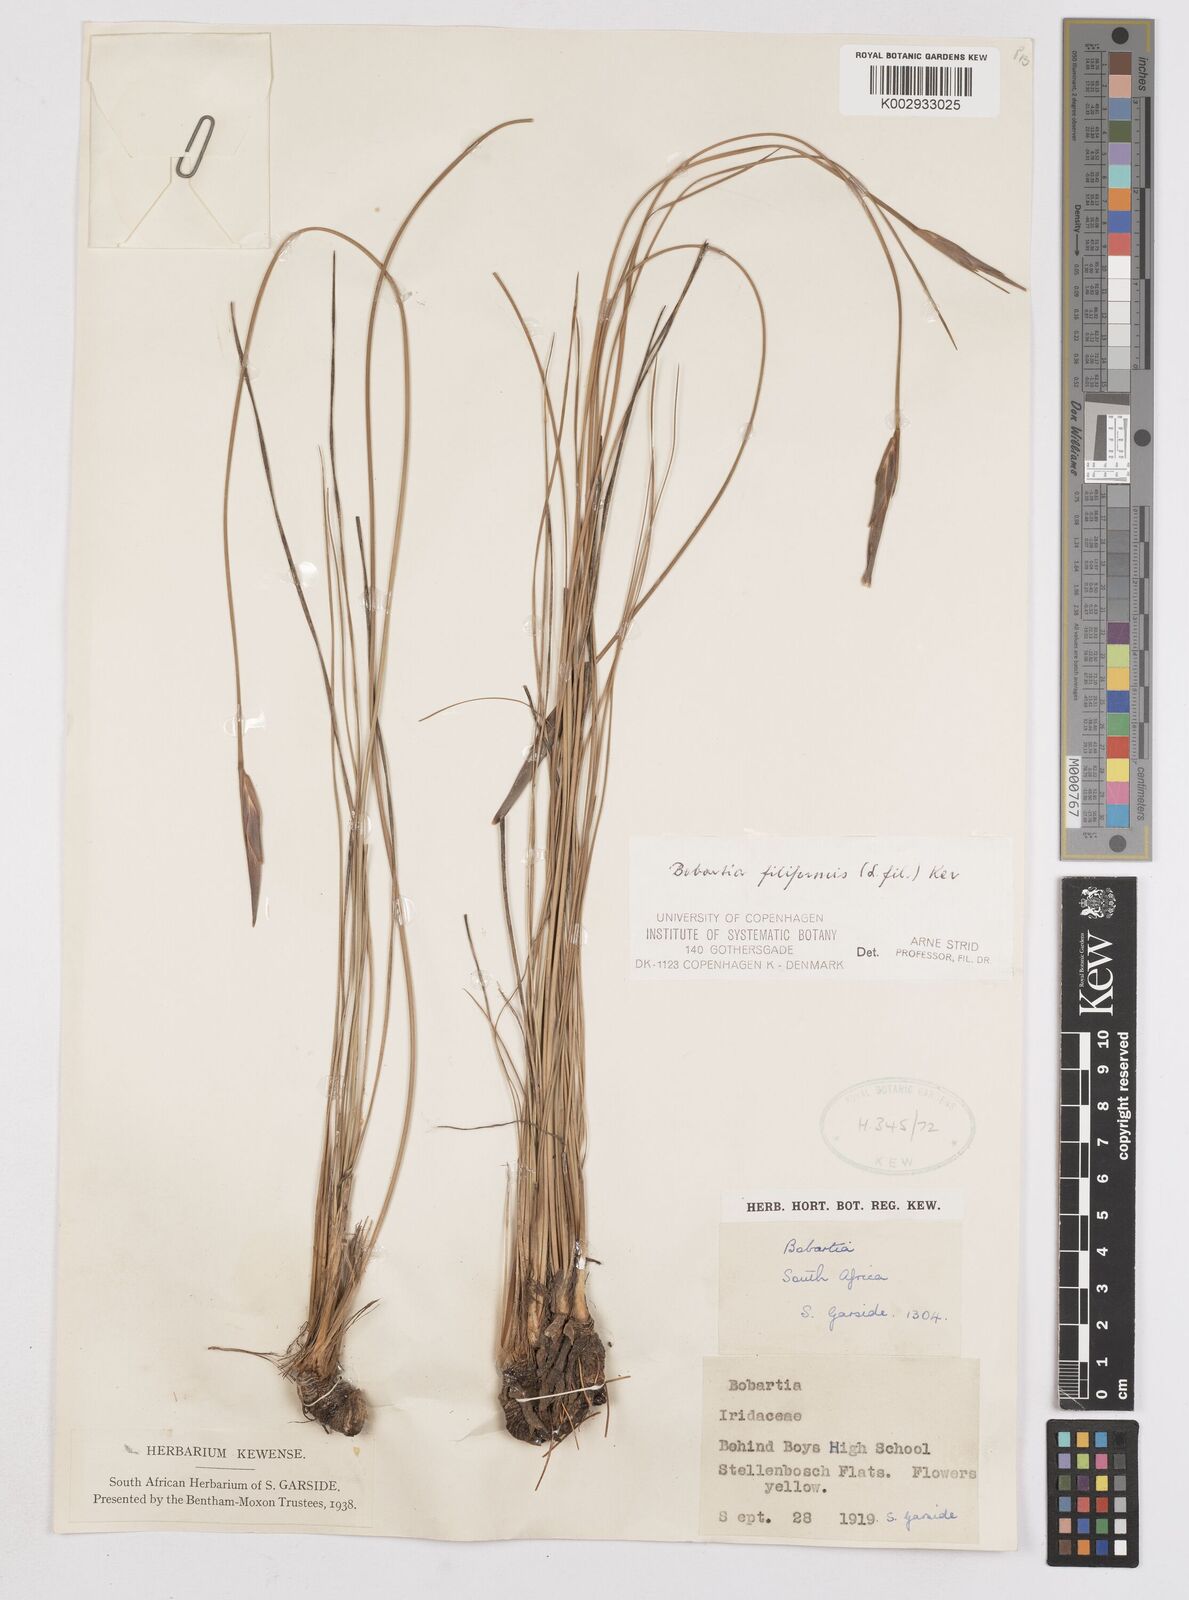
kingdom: Plantae
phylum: Tracheophyta
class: Liliopsida
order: Asparagales
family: Iridaceae
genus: Bobartia
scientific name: Bobartia filiformis
